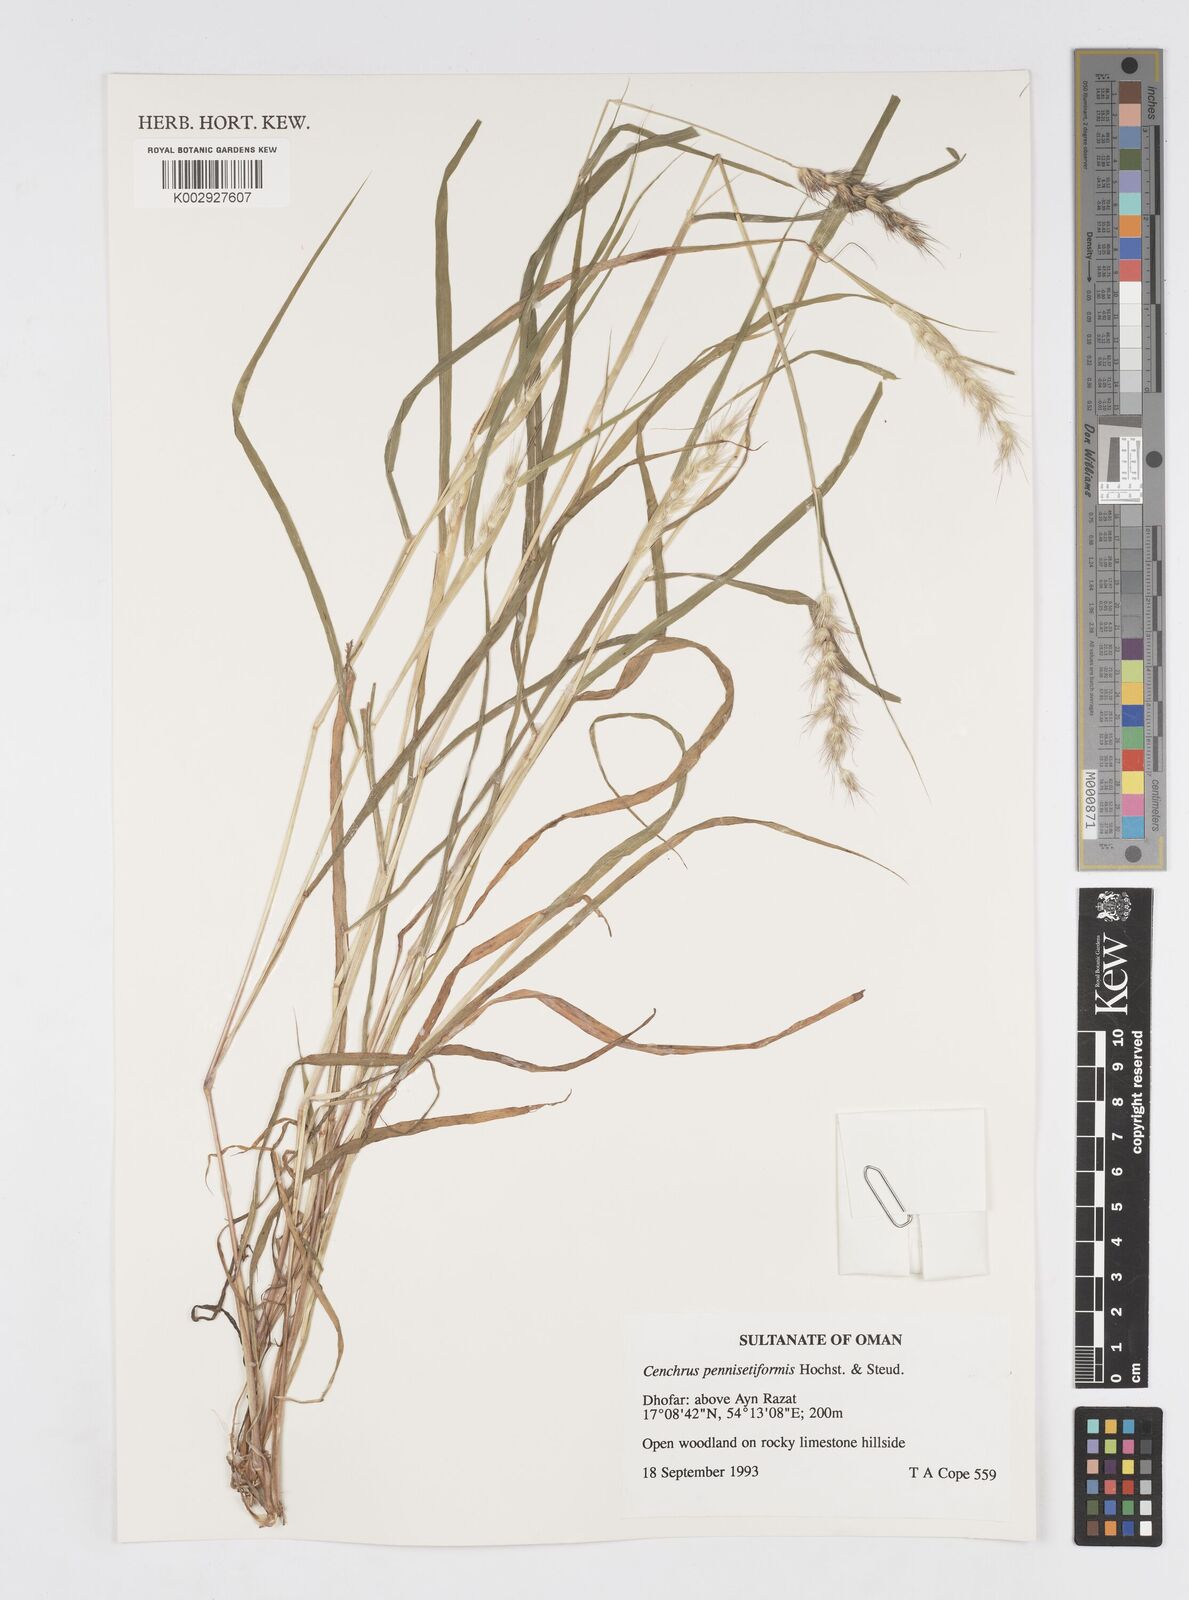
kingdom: Plantae
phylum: Tracheophyta
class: Liliopsida
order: Poales
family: Poaceae
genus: Cenchrus
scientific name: Cenchrus pennisetiformis
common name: Cloncurry
